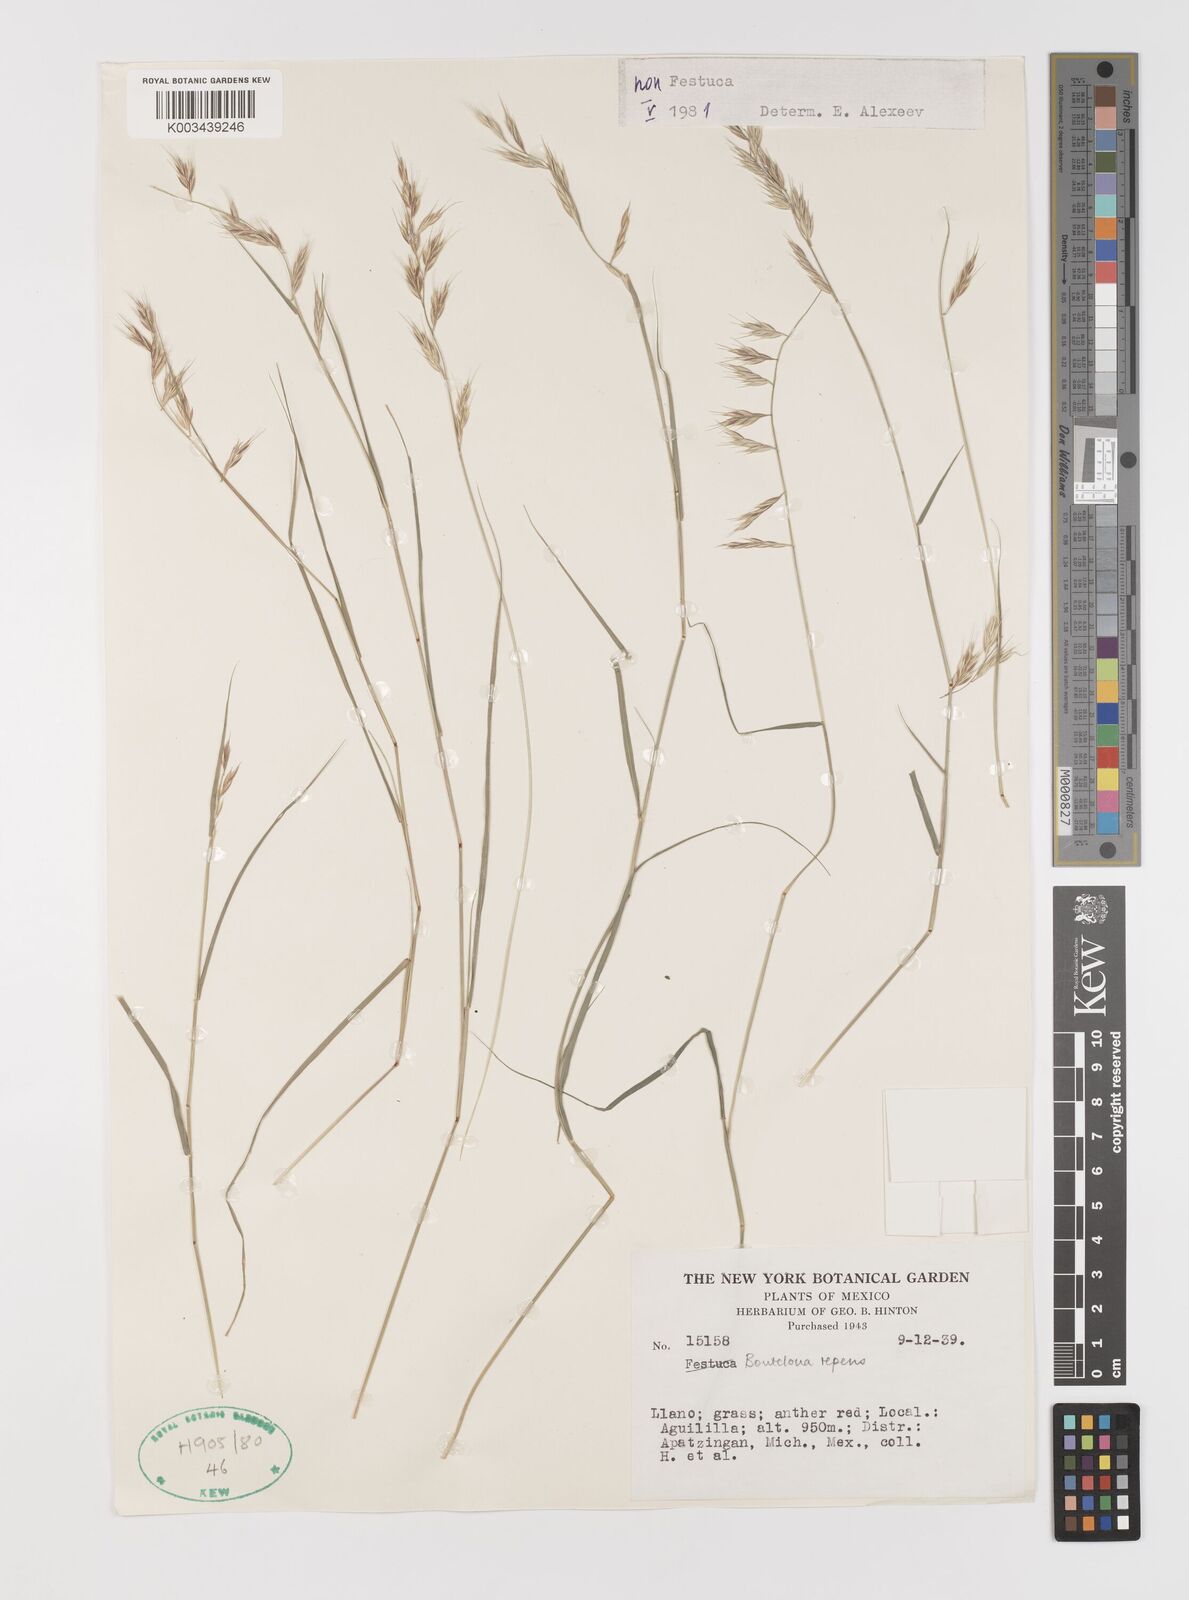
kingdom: Plantae
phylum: Tracheophyta
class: Liliopsida
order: Poales
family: Poaceae
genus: Bouteloua
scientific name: Bouteloua repens
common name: Slender grama
